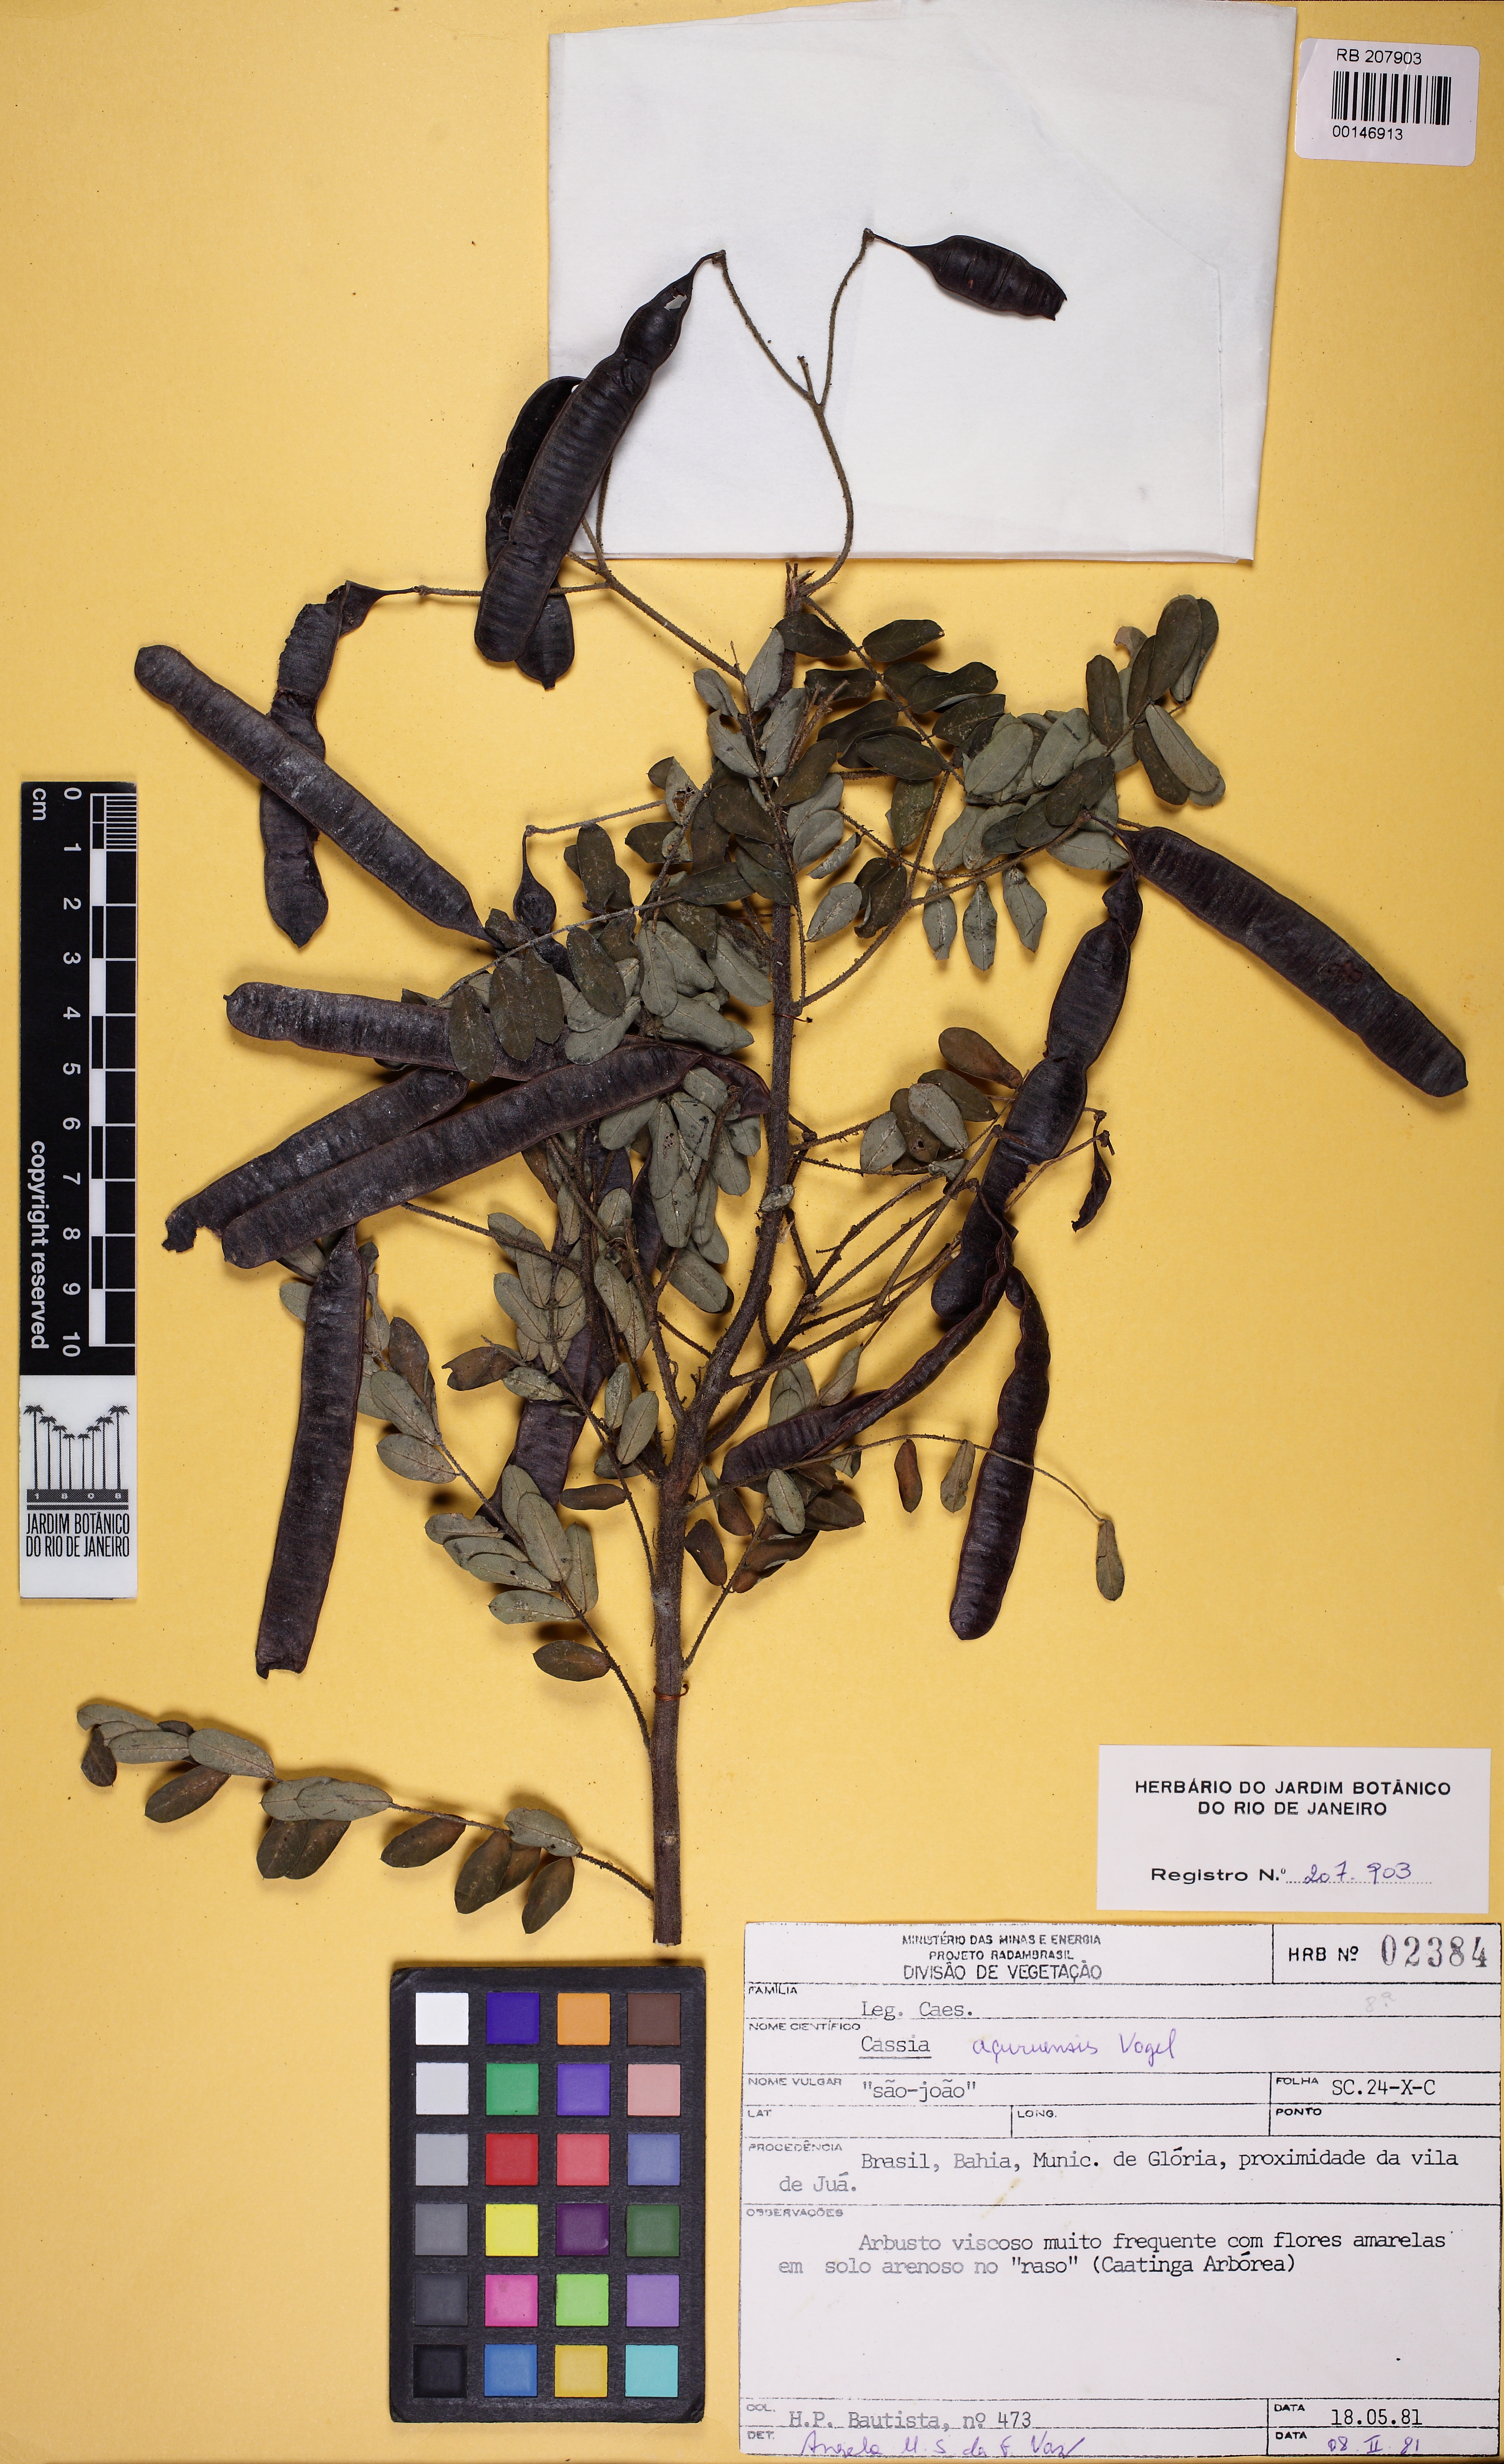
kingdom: Plantae
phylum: Tracheophyta
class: Magnoliopsida
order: Fabales
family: Fabaceae
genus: Senna
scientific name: Senna acuruensis
